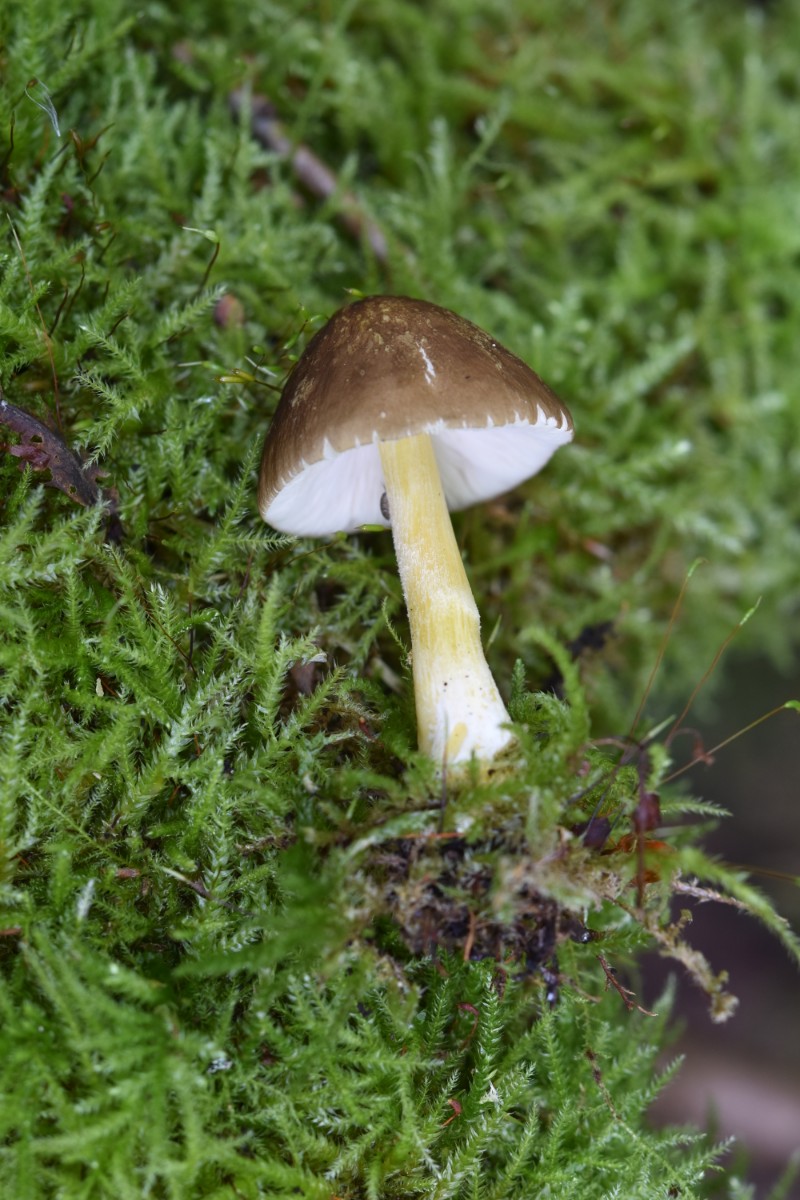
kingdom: Fungi
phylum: Basidiomycota
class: Agaricomycetes
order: Agaricales
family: Pluteaceae
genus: Pluteus
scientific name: Pluteus romellii
